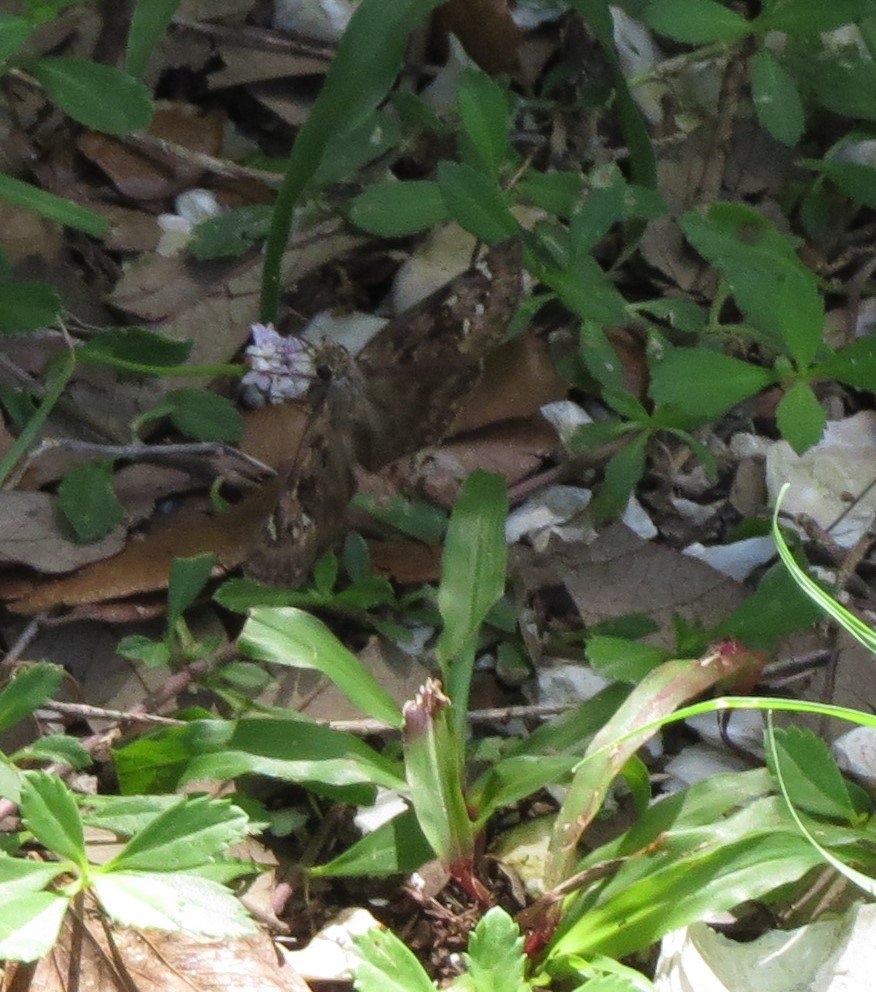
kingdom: Animalia
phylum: Arthropoda
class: Insecta
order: Lepidoptera
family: Hesperiidae
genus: Gesta
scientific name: Gesta
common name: Horace's Duskywing
